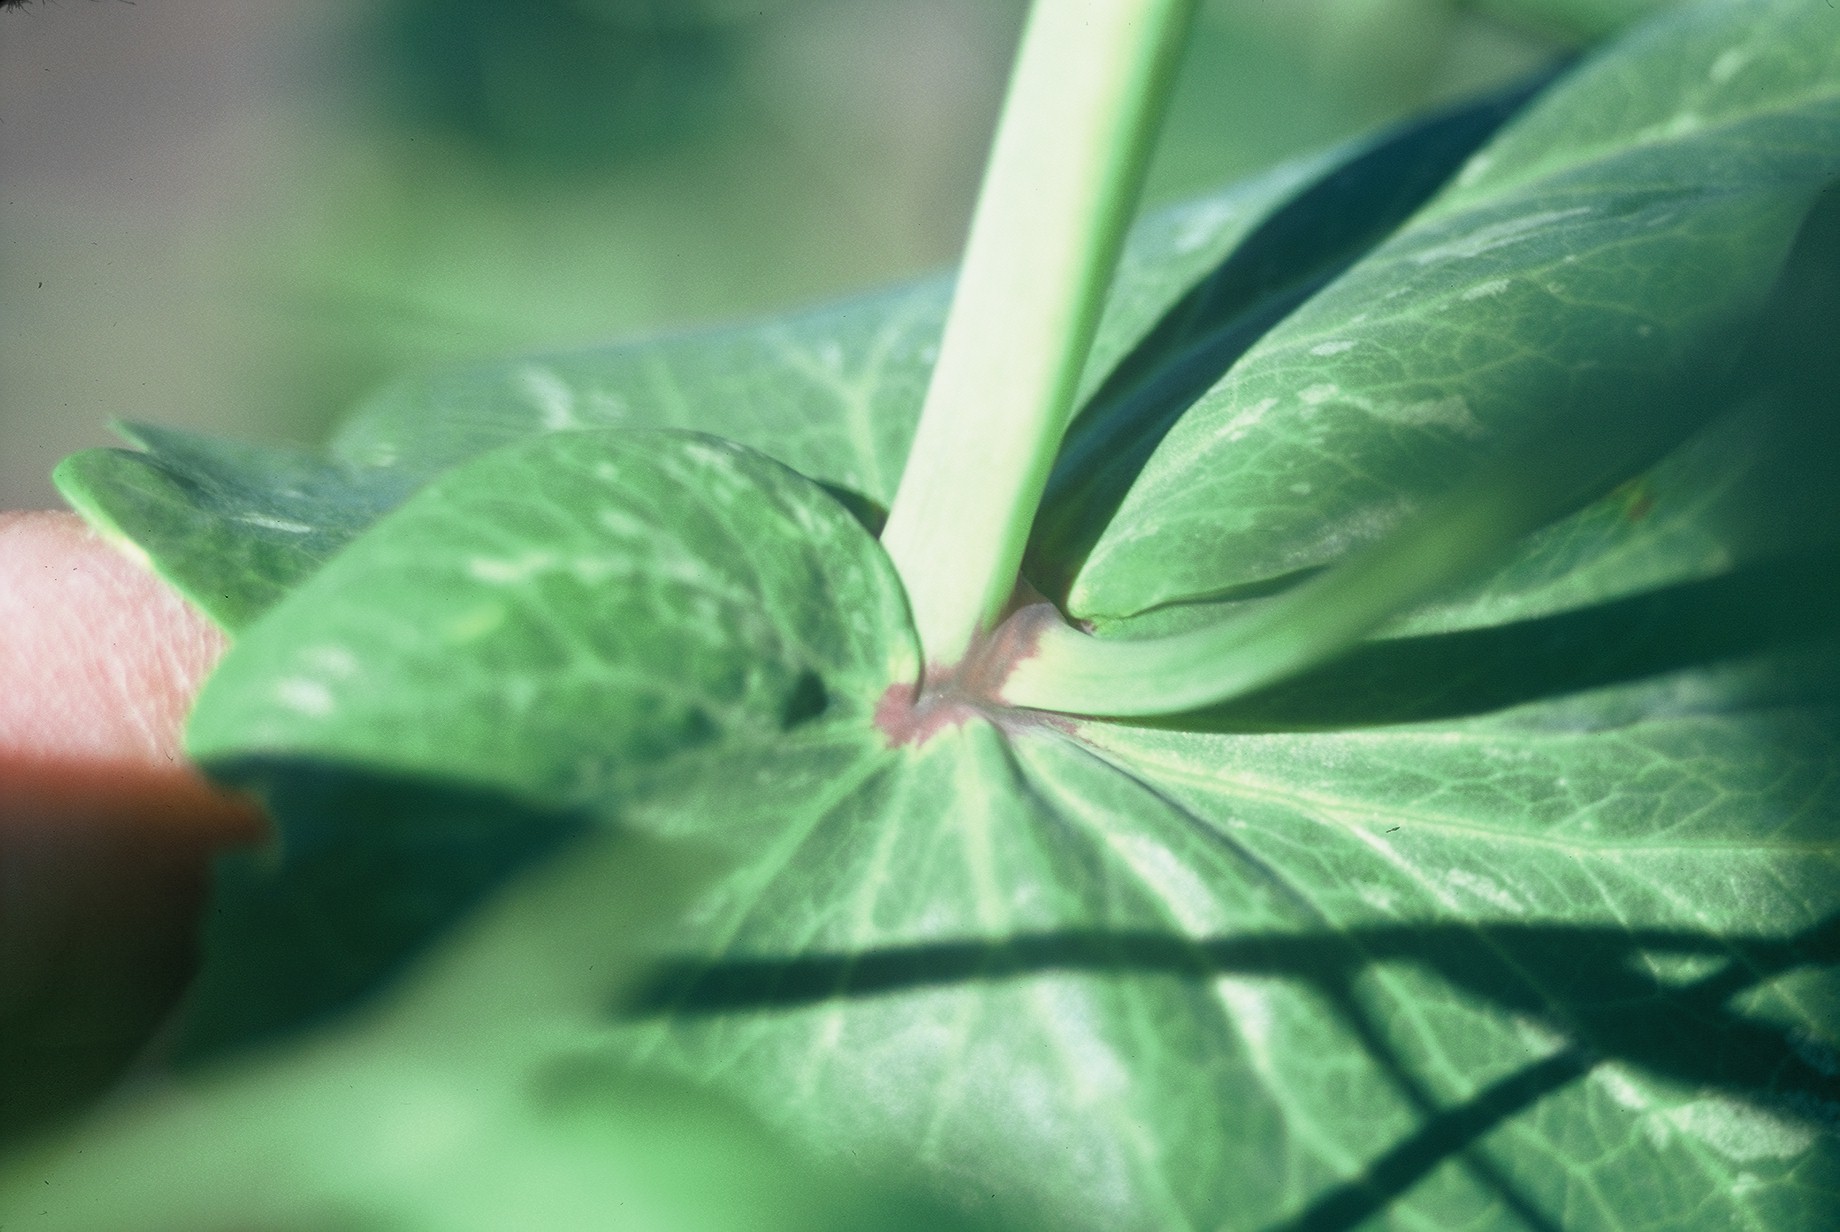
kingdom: Plantae
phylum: Tracheophyta
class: Magnoliopsida
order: Fabales
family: Fabaceae
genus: Lathyrus
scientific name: Lathyrus oleraceus
